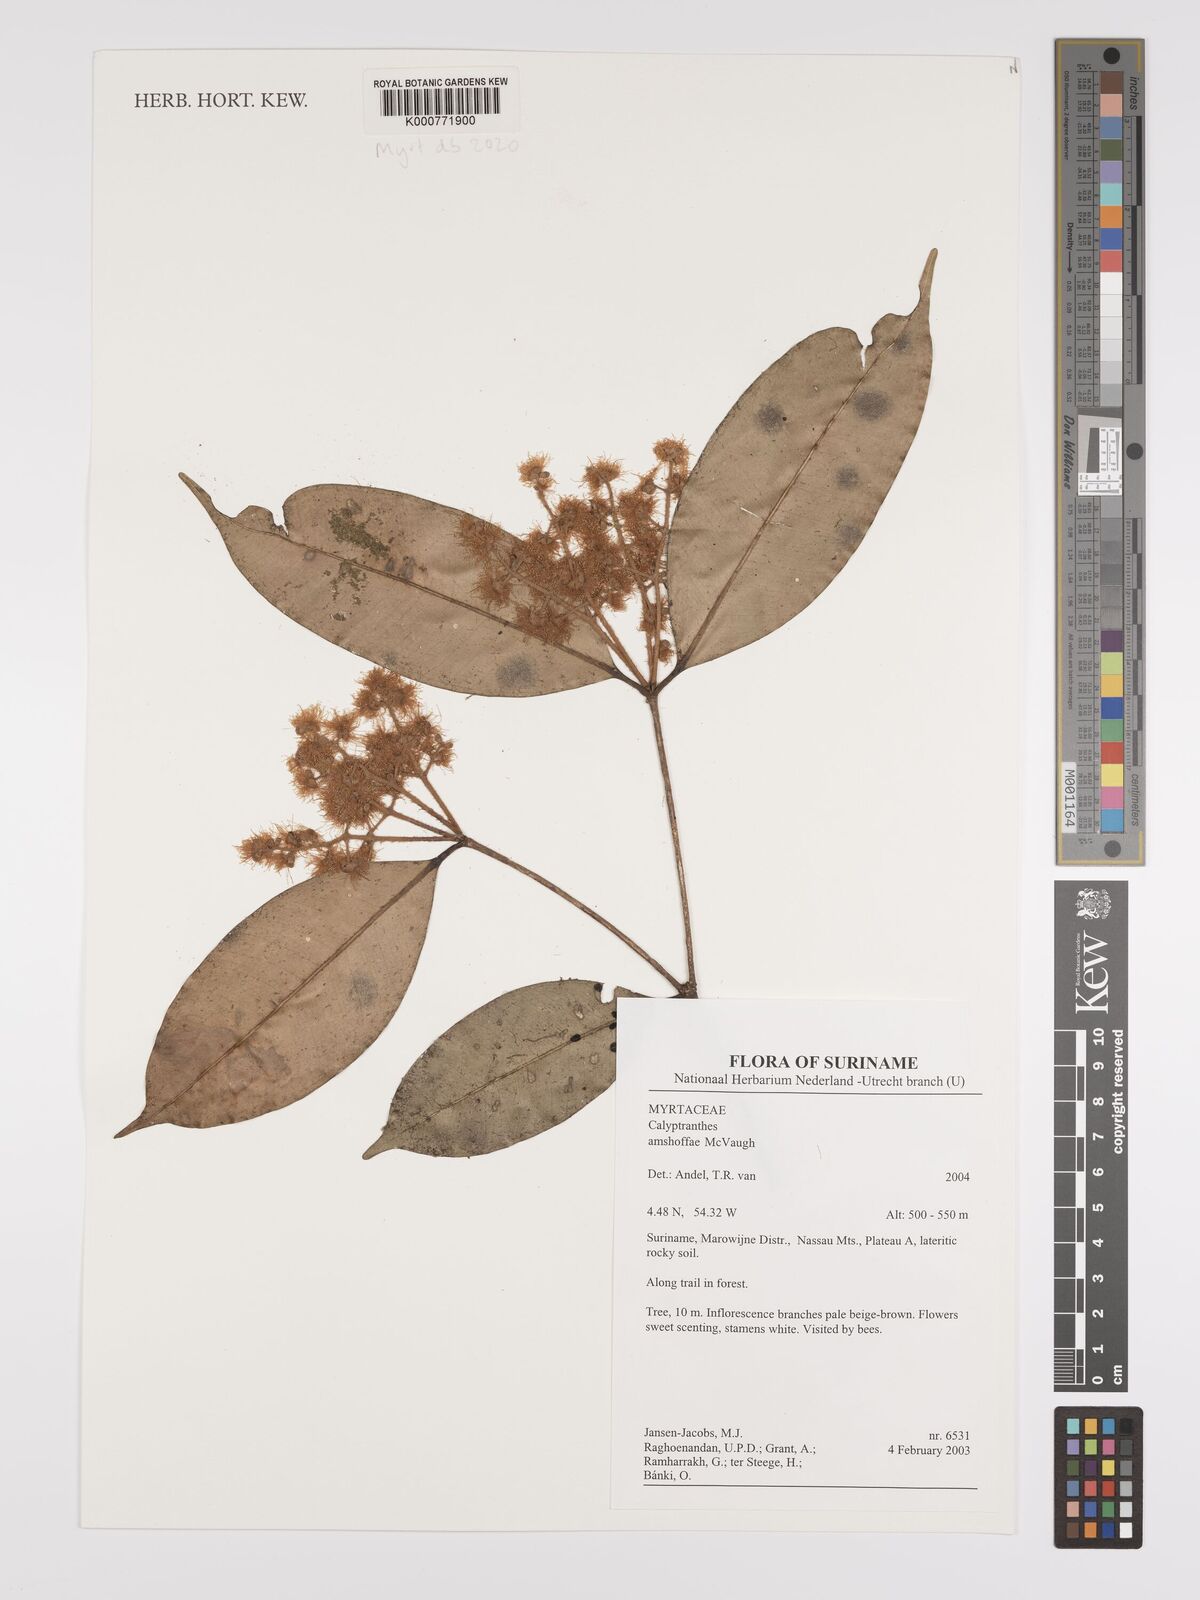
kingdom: Plantae
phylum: Tracheophyta
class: Magnoliopsida
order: Myrtales
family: Myrtaceae
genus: Myrcia
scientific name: Myrcia amshoffae
